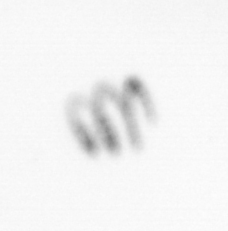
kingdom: Chromista
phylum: Ochrophyta
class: Bacillariophyceae
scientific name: Bacillariophyceae
